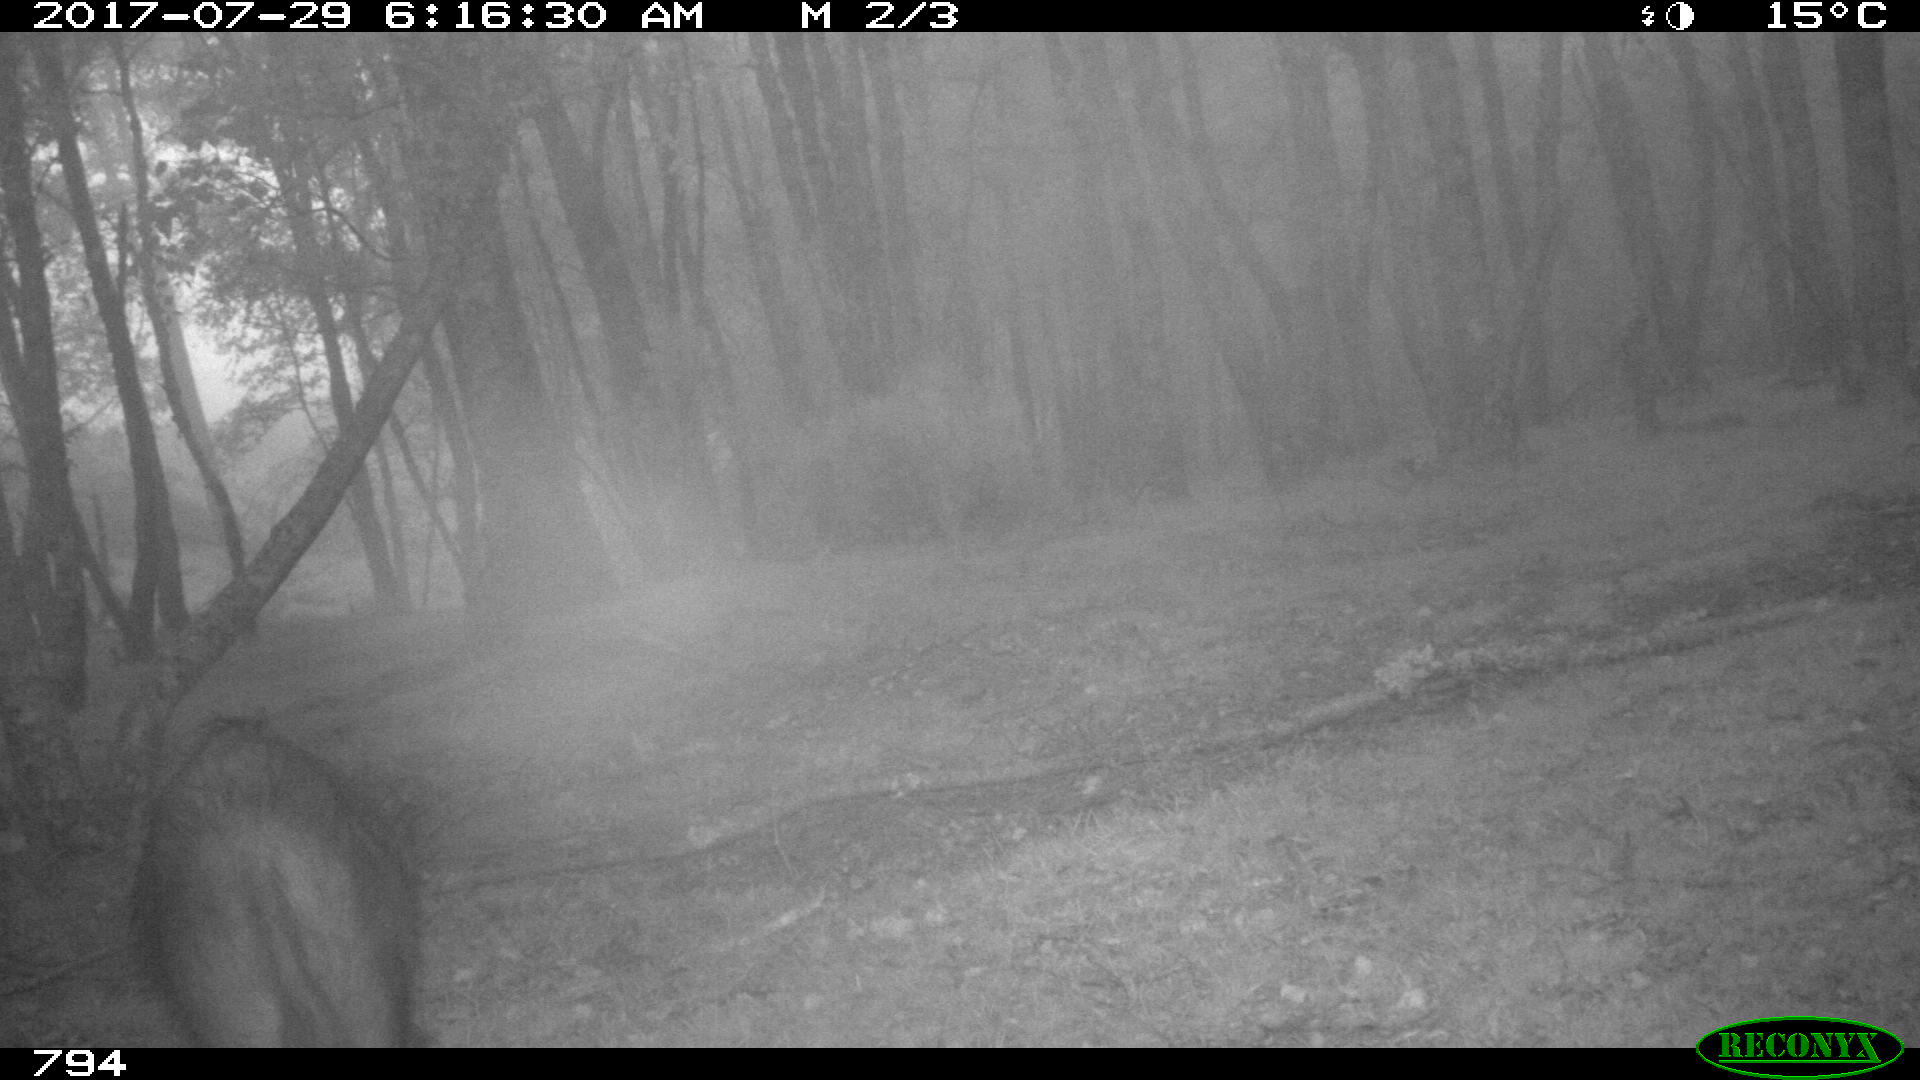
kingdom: Animalia
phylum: Chordata
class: Mammalia
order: Artiodactyla
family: Suidae
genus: Sus
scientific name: Sus scrofa
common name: Wild boar
